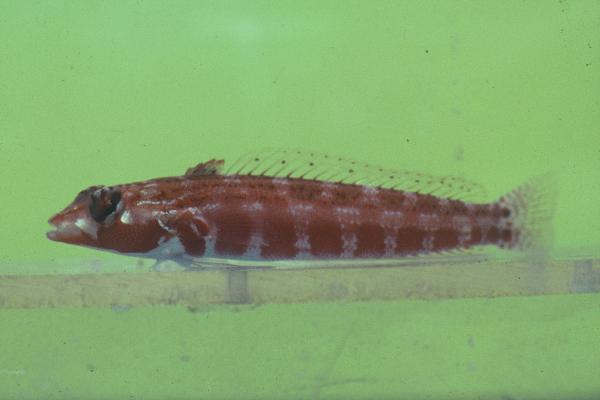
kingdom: Animalia
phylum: Chordata
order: Perciformes
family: Pinguipedidae
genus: Parapercis
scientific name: Parapercis
